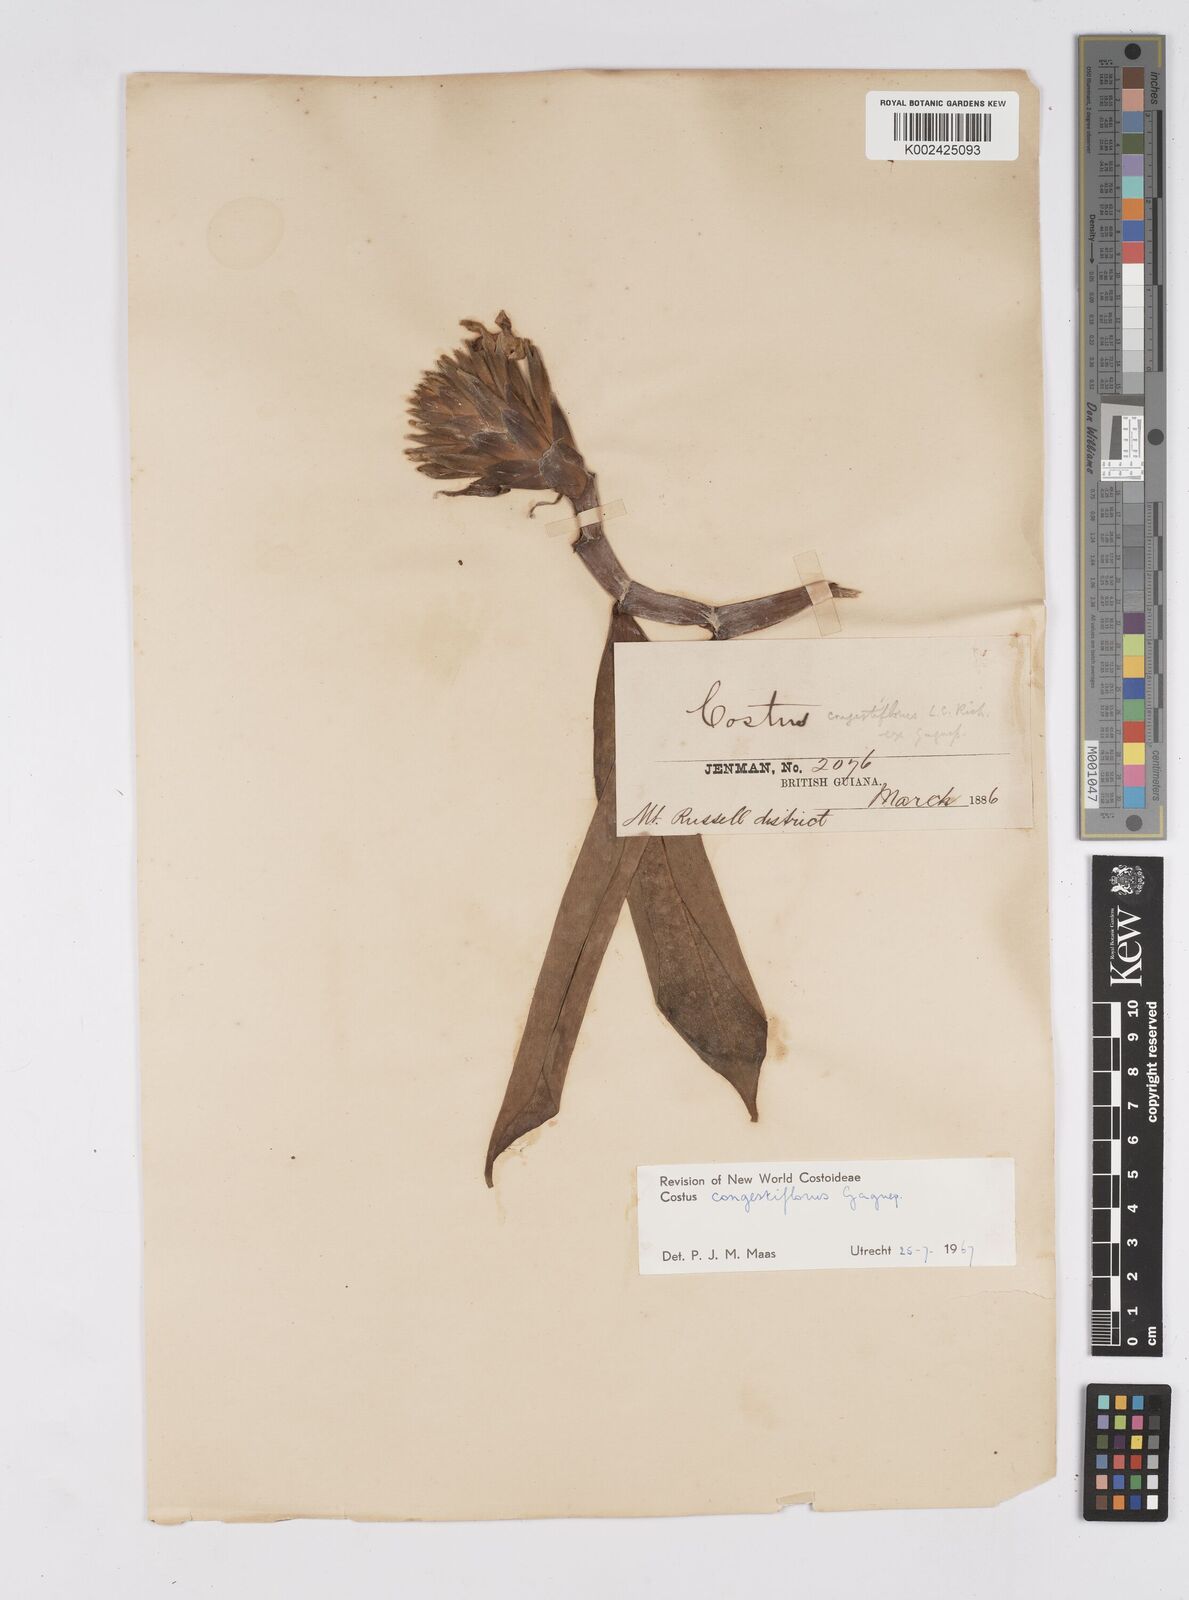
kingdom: Plantae
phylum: Tracheophyta
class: Liliopsida
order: Zingiberales
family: Costaceae
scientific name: Costaceae
